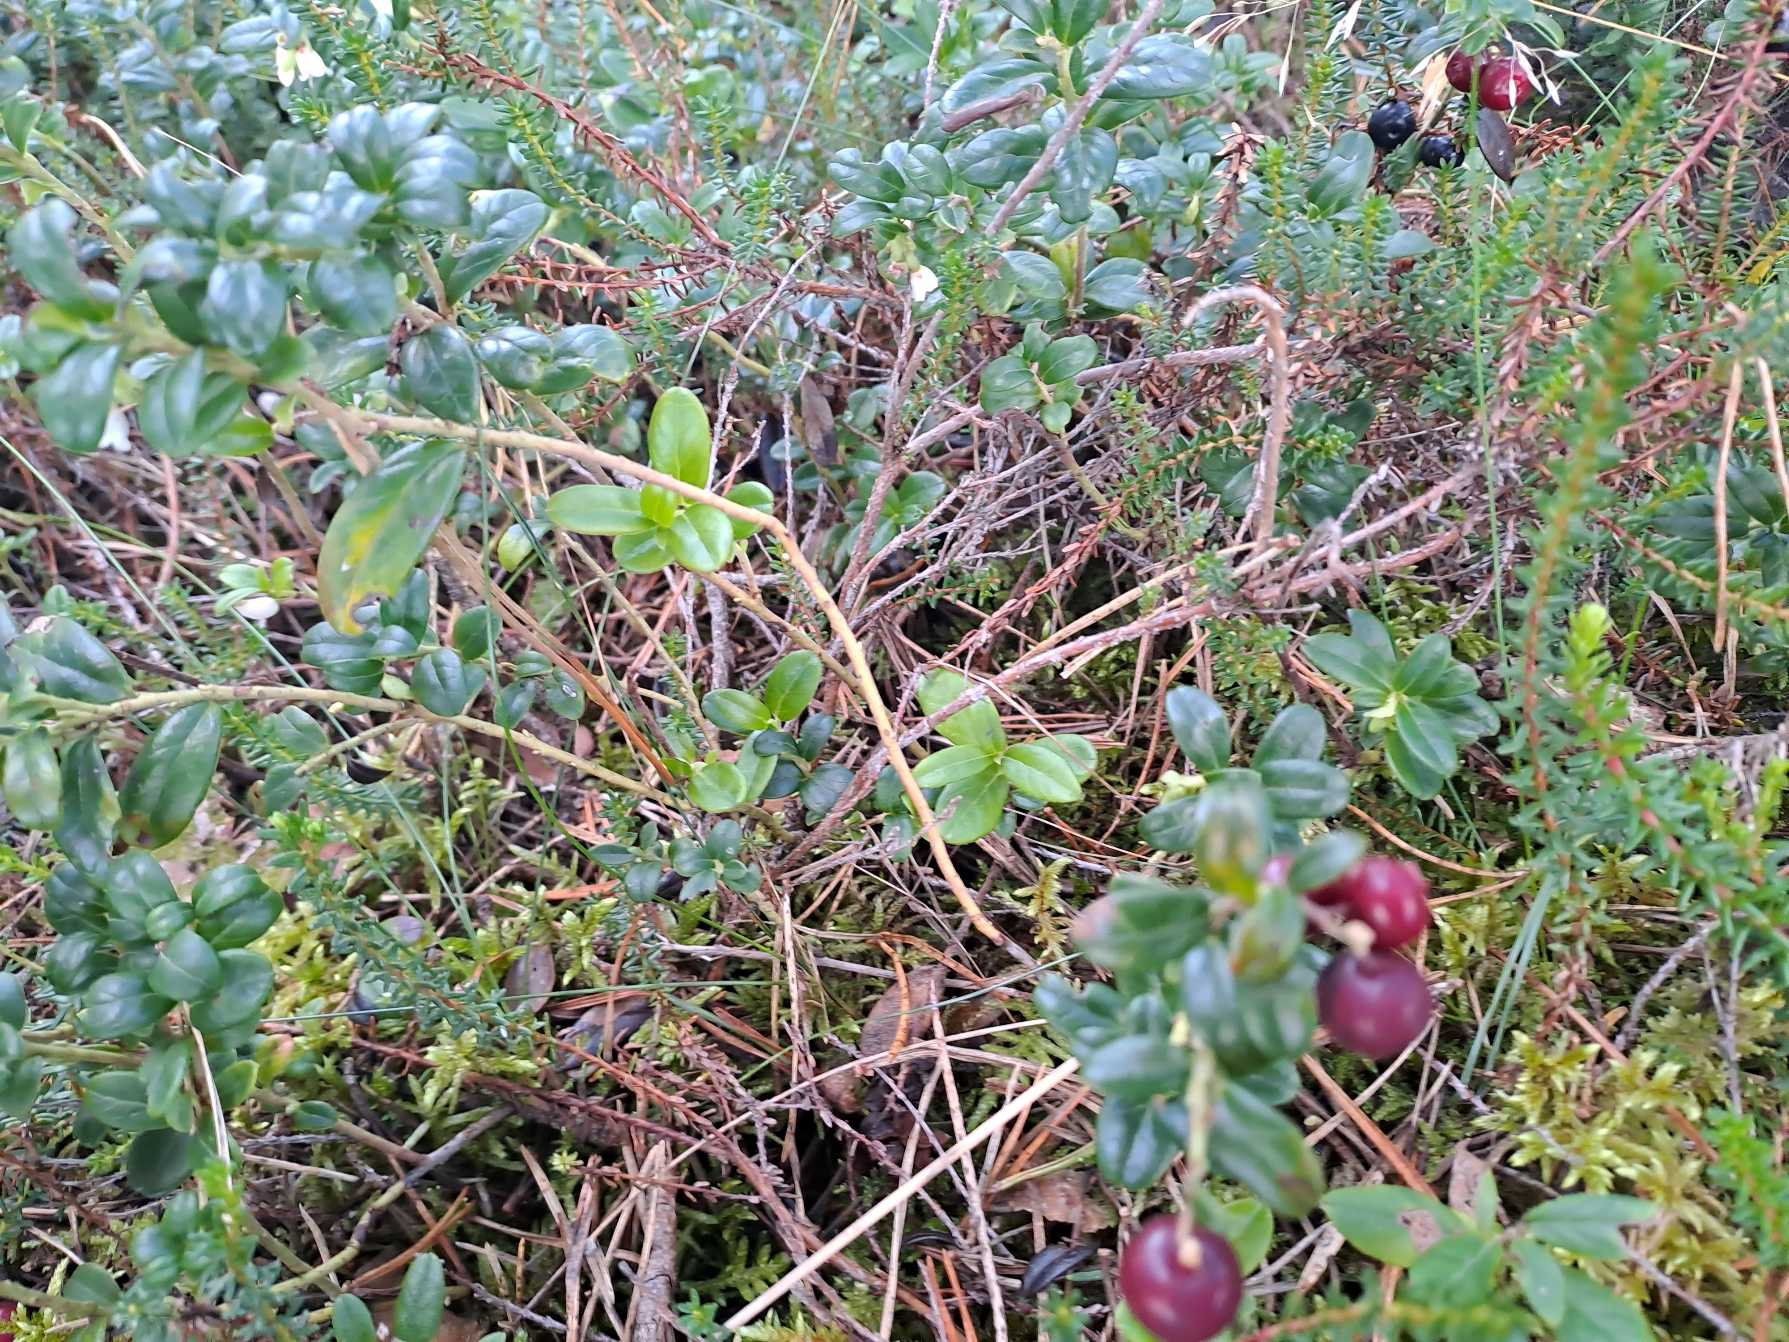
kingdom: Plantae
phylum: Tracheophyta
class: Magnoliopsida
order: Ericales
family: Ericaceae
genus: Vaccinium
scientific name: Vaccinium vitis-idaea
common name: Tyttebær
